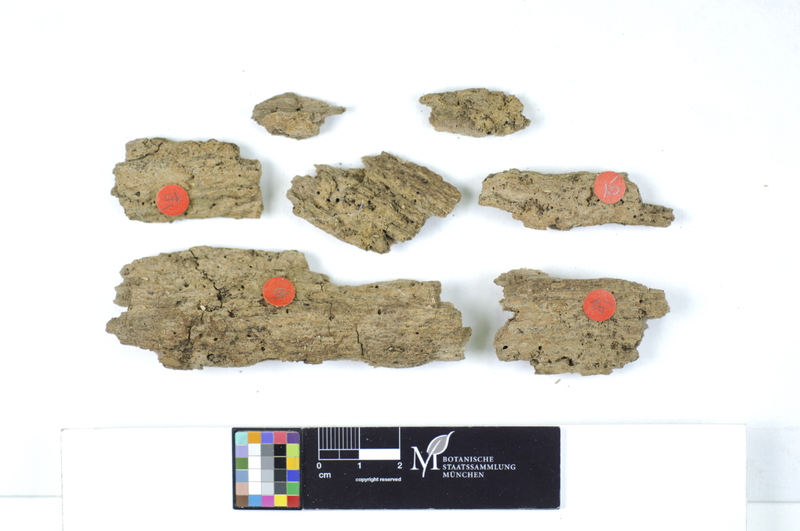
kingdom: Plantae
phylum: Tracheophyta
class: Magnoliopsida
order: Lamiales
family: Oleaceae
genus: Fraxinus
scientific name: Fraxinus
